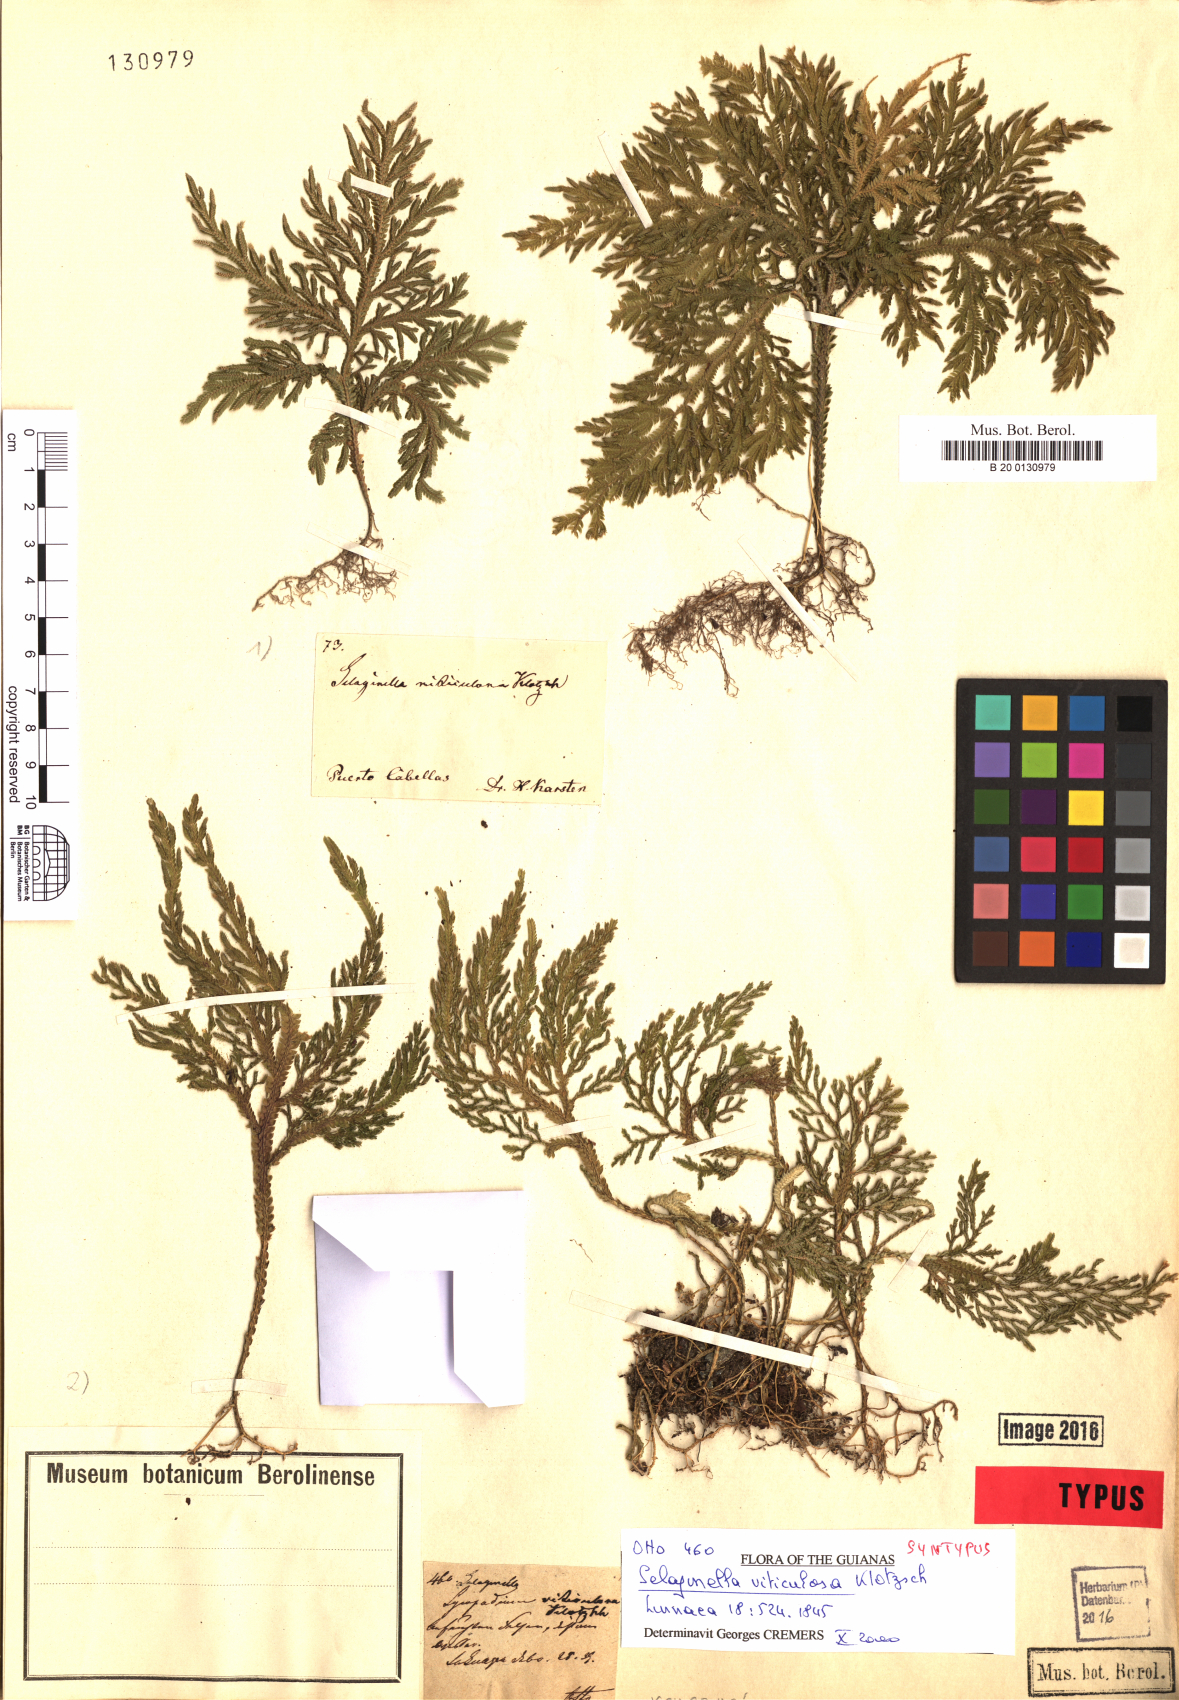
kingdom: Plantae
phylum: Tracheophyta
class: Lycopodiopsida
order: Selaginellales
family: Selaginellaceae
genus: Selaginella
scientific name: Selaginella viticulosa
